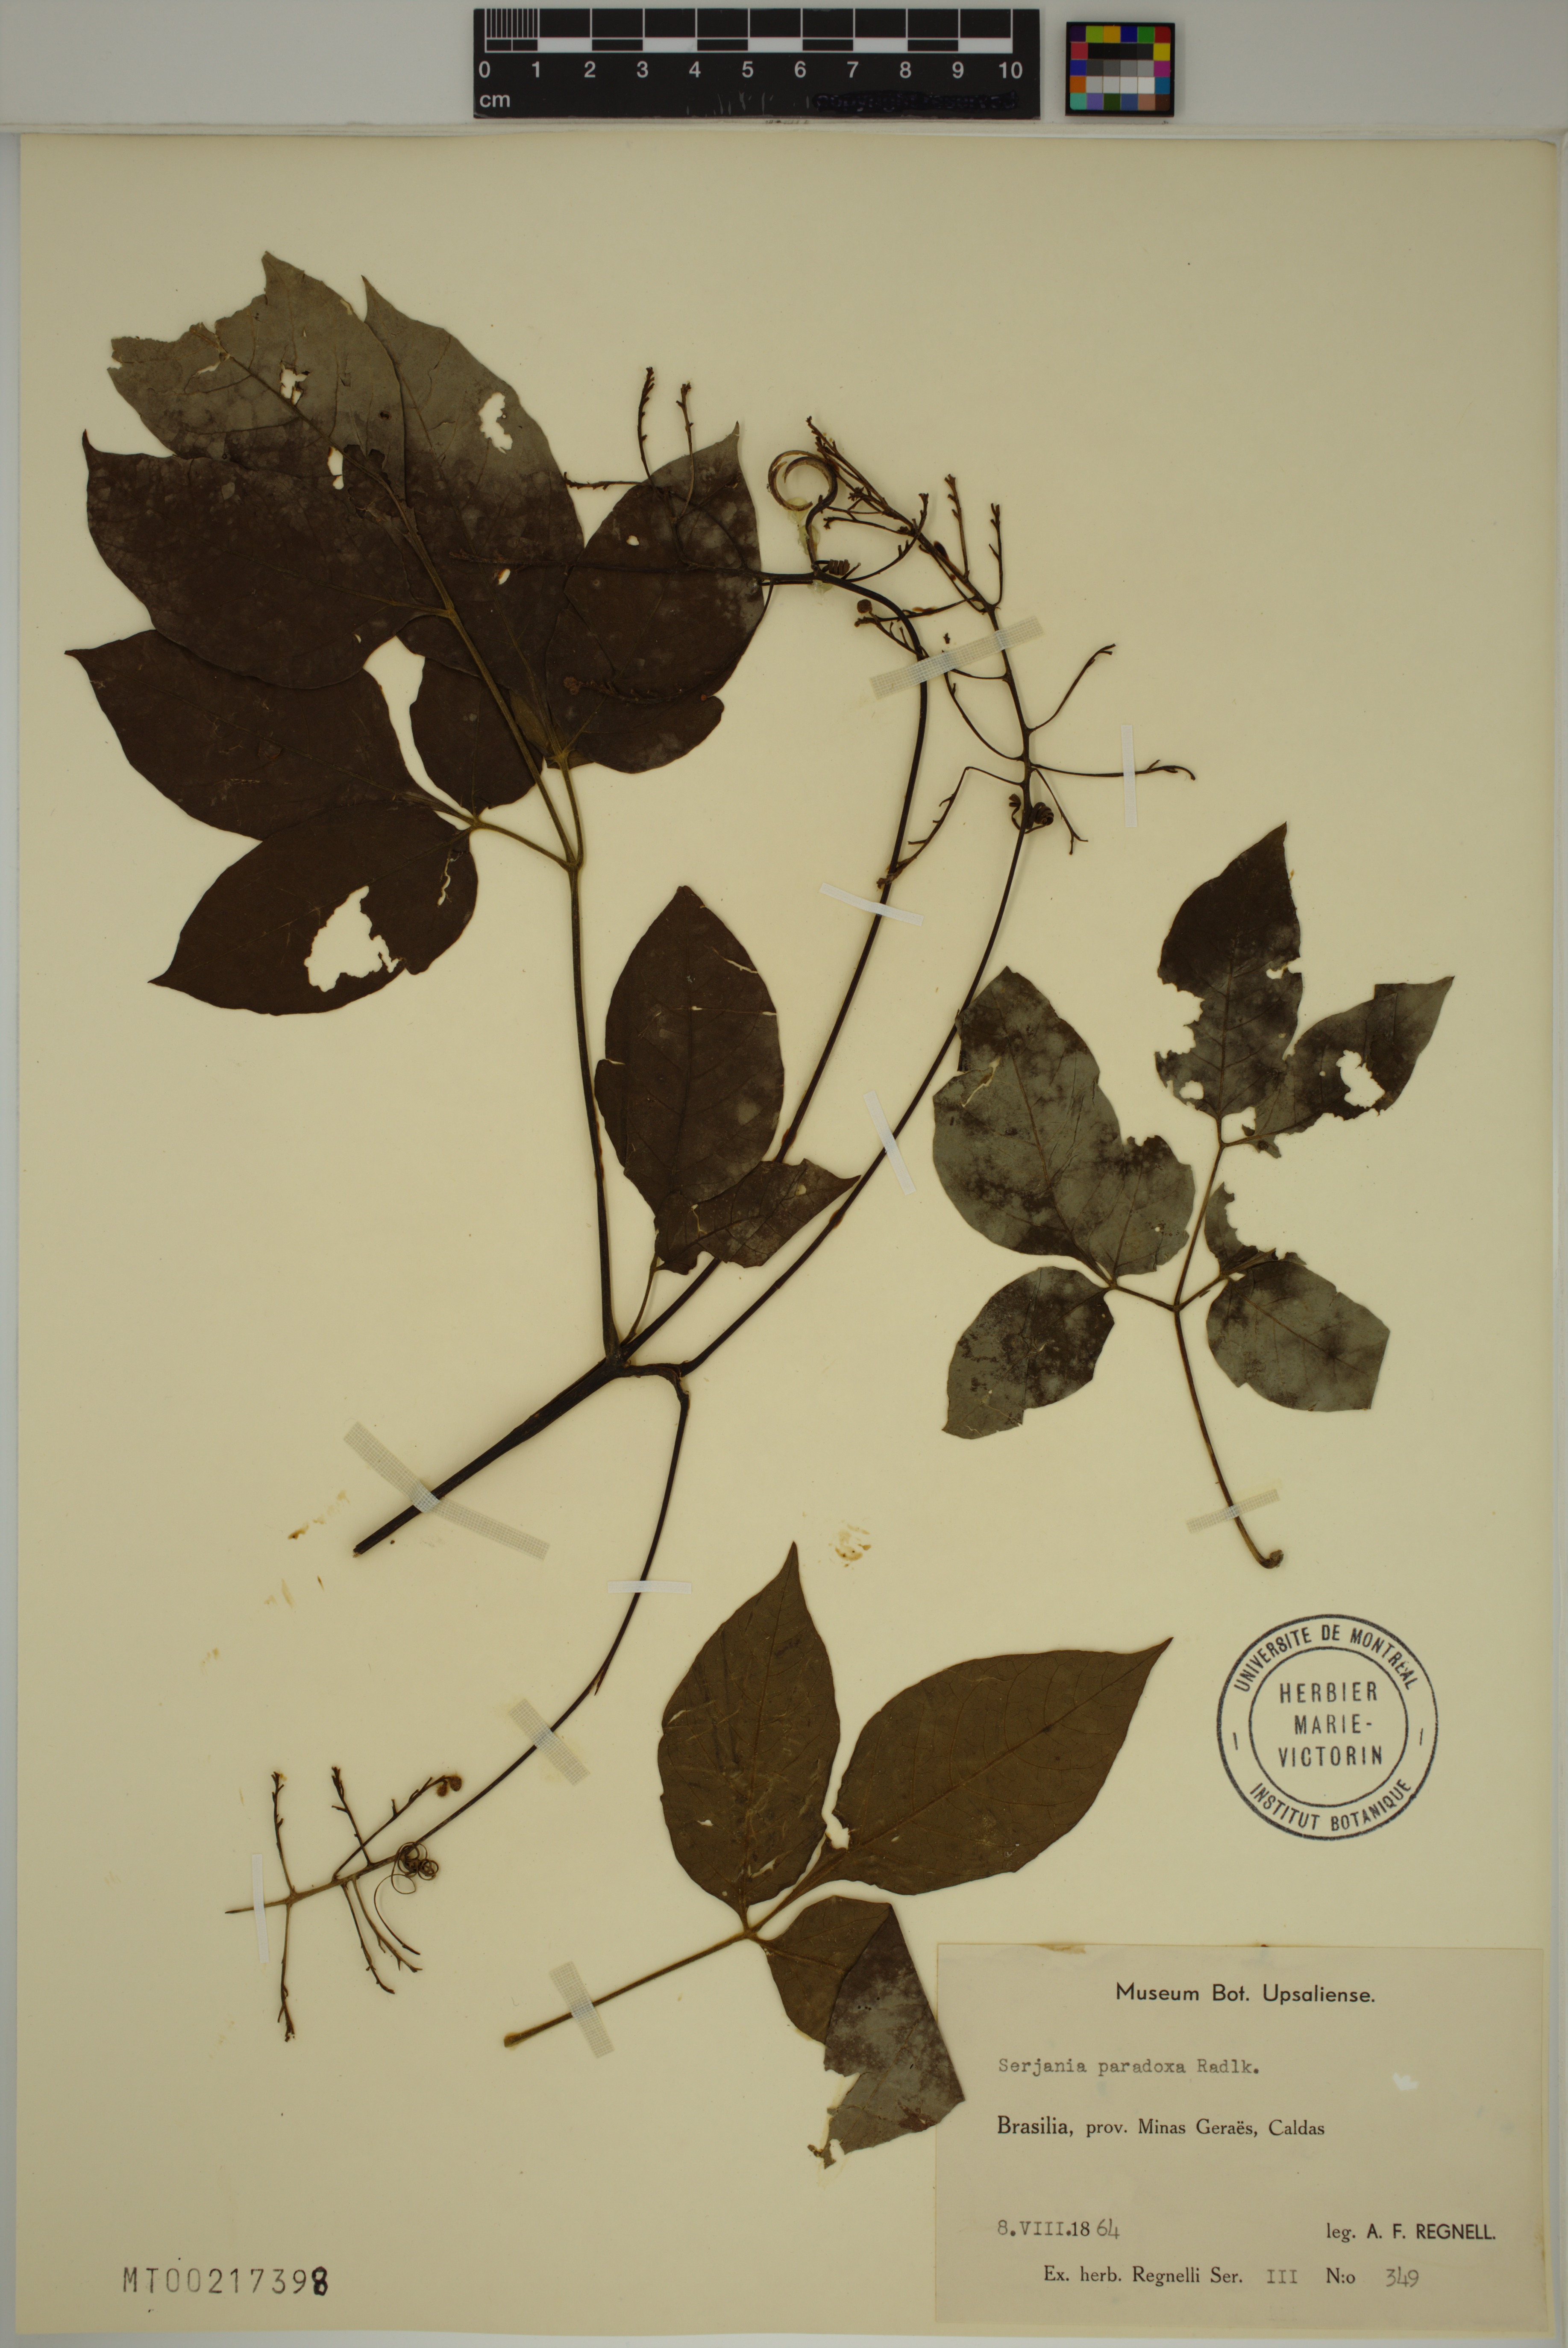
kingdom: Plantae
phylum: Tracheophyta
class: Magnoliopsida
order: Sapindales
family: Sapindaceae
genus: Serjania
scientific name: Serjania paradoxa
